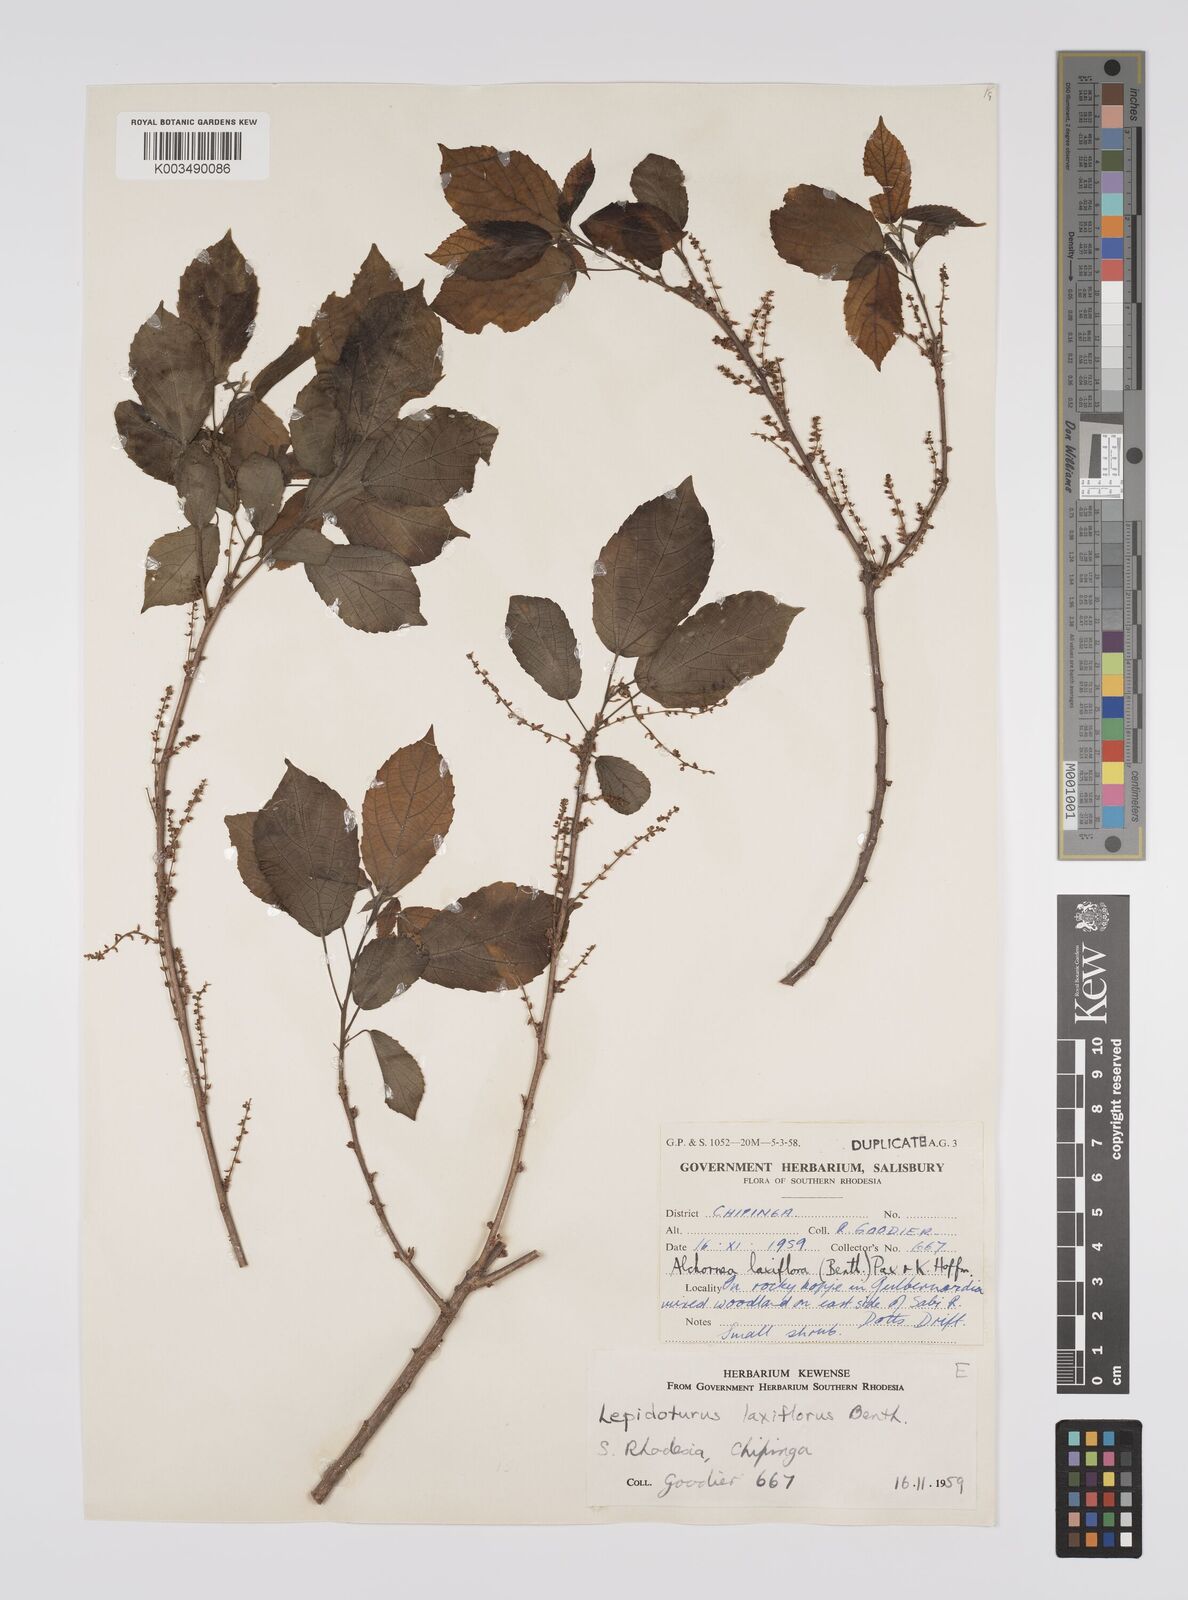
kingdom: Plantae
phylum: Tracheophyta
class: Magnoliopsida
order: Malpighiales
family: Euphorbiaceae
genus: Alchornea
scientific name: Alchornea laxiflora
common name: Lowveld bead-string
